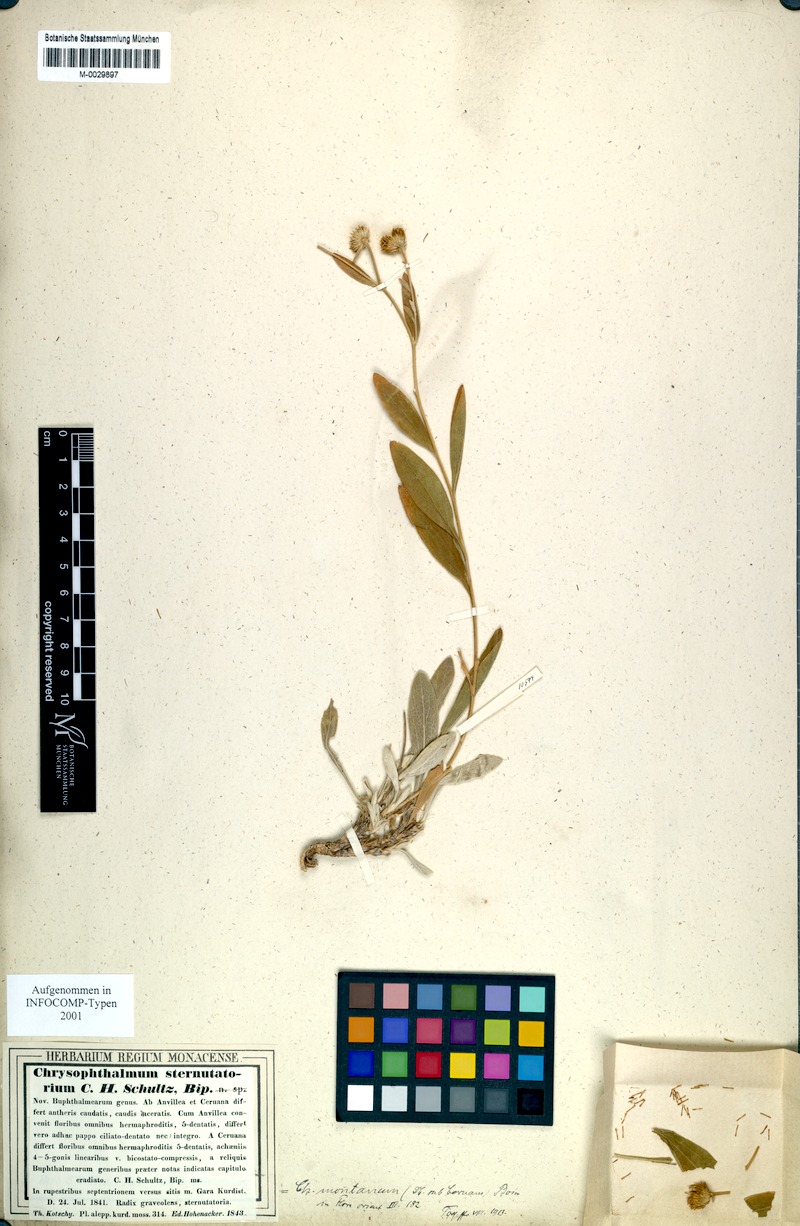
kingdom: Plantae
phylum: Tracheophyta
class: Magnoliopsida
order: Asterales
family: Asteraceae
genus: Chrysophthalmum
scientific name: Chrysophthalmum montanum
